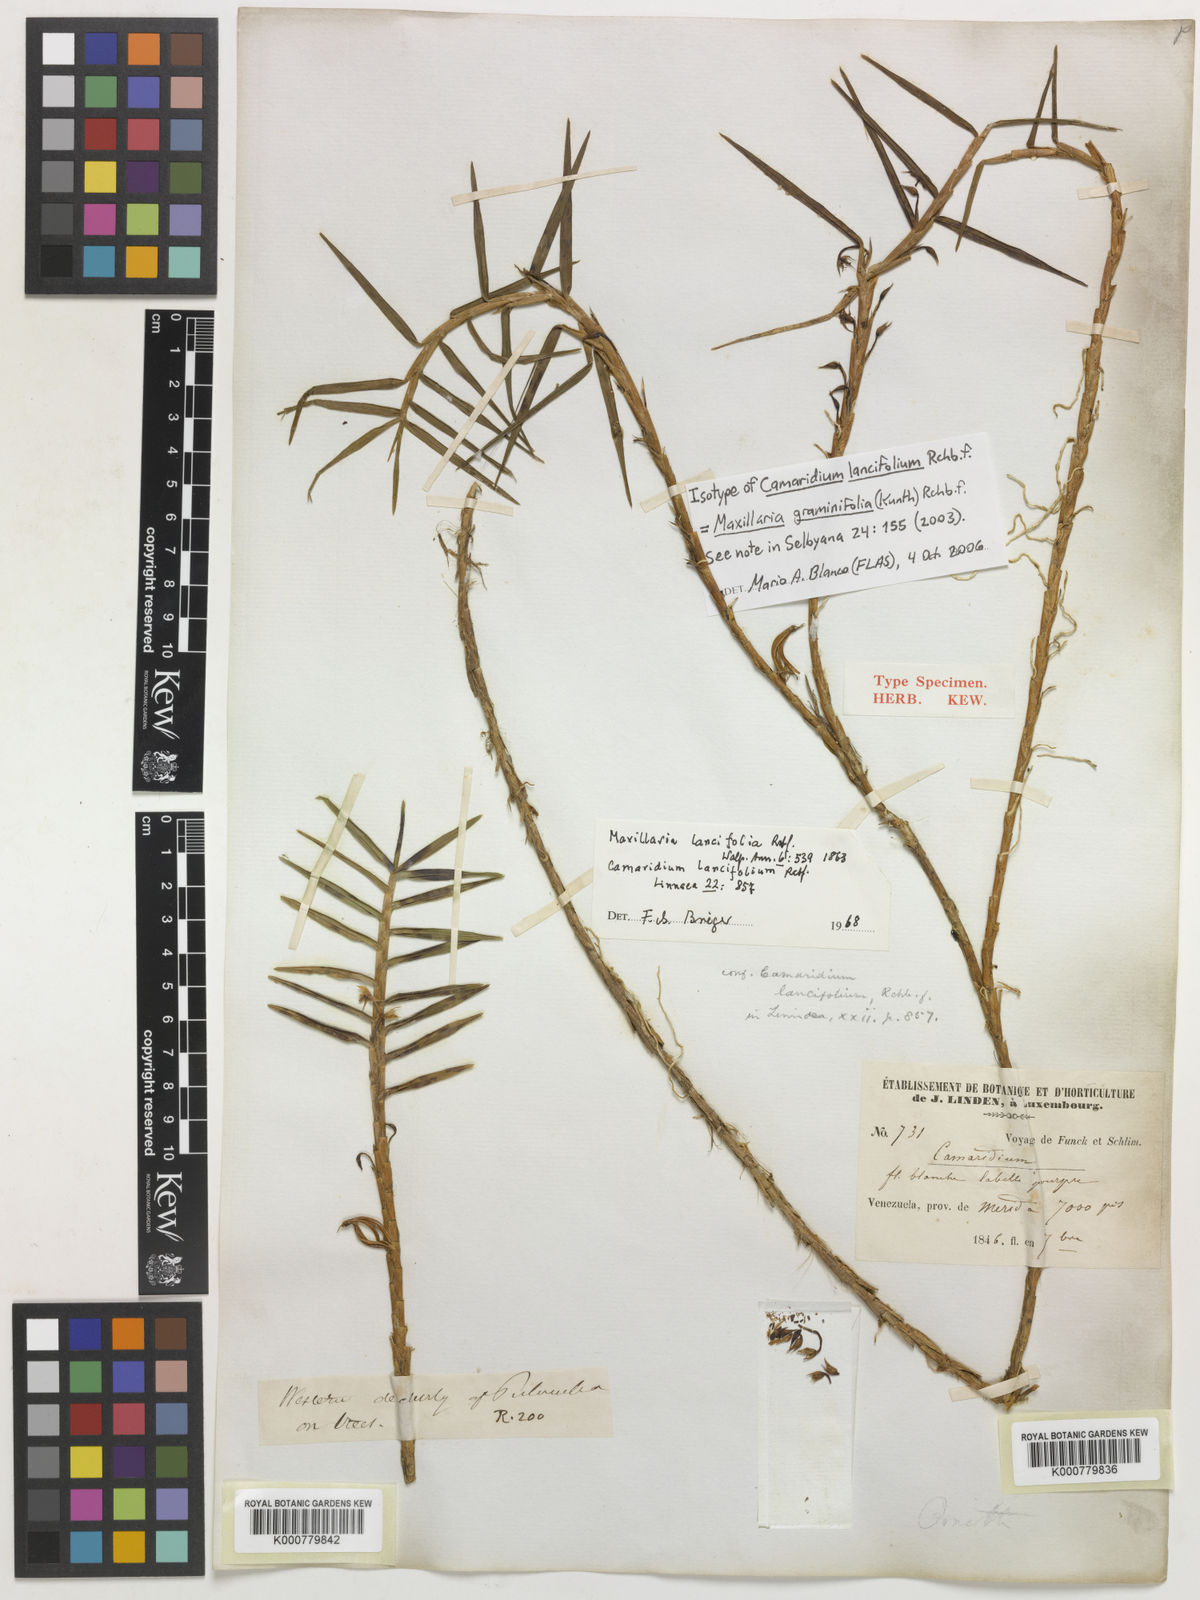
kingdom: Plantae
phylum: Tracheophyta
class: Liliopsida
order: Asparagales
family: Orchidaceae
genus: Maxillaria
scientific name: Maxillaria graminifolia
